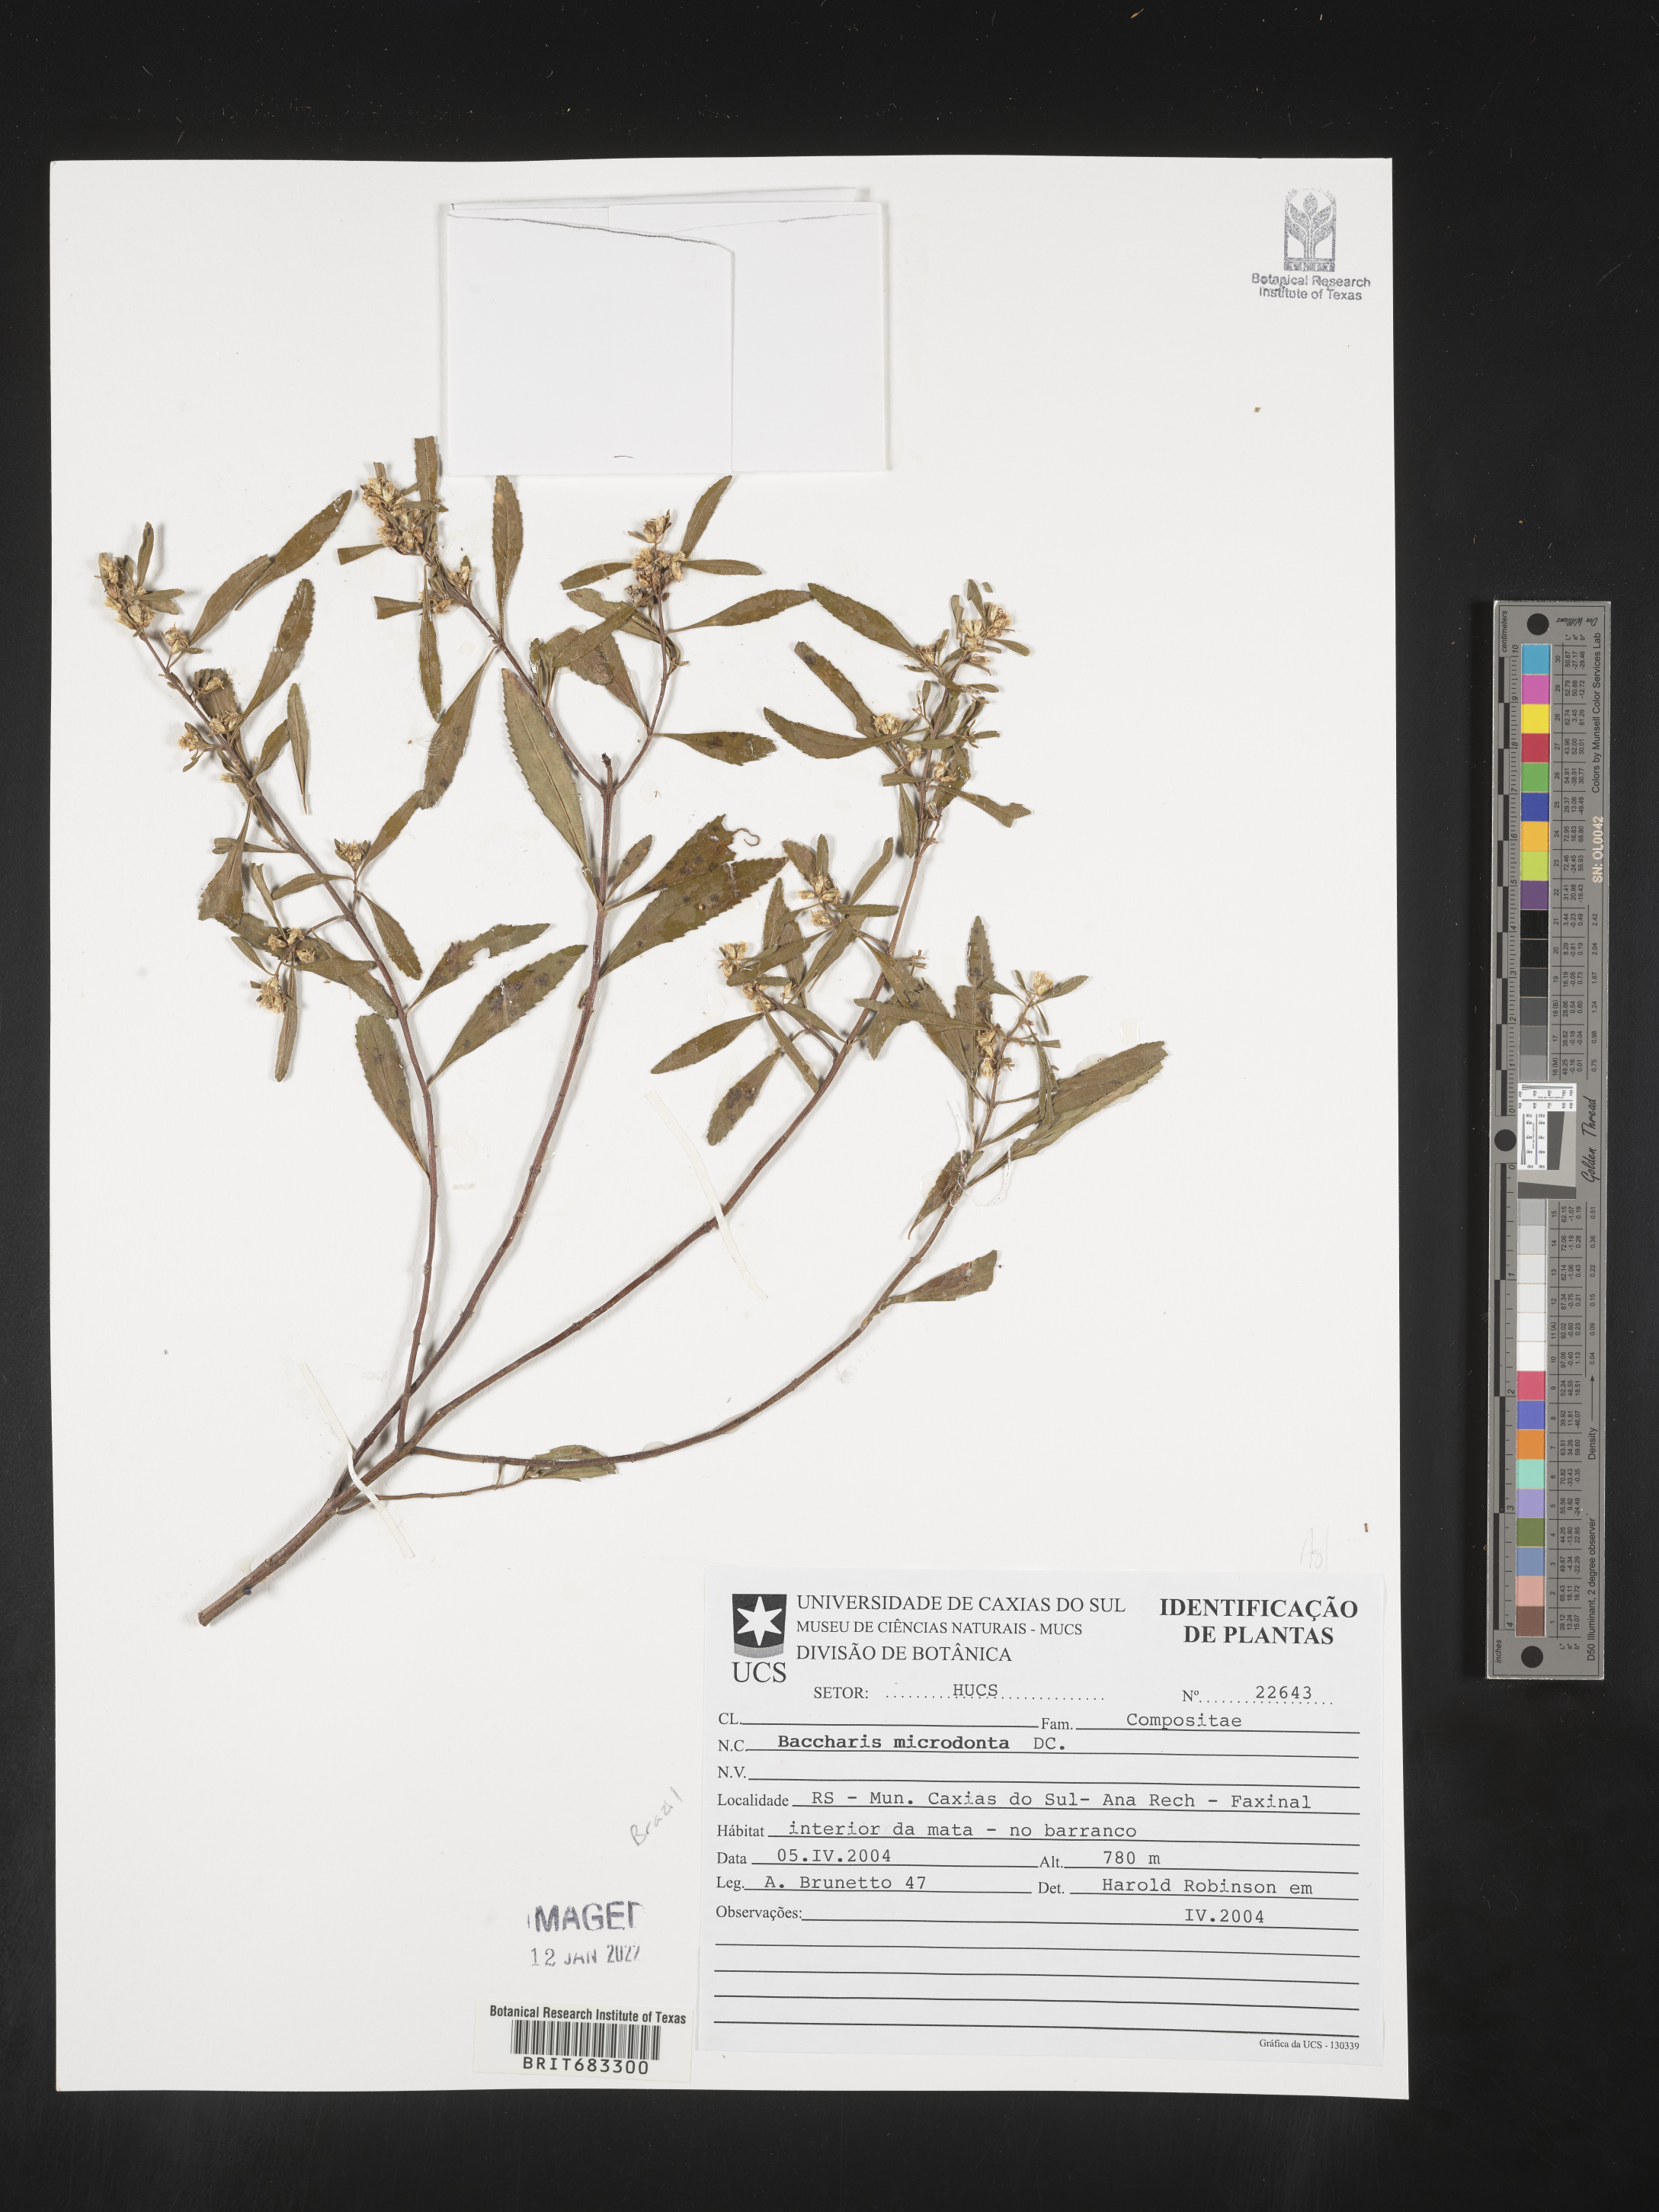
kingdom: Plantae
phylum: Tracheophyta
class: Magnoliopsida
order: Asterales
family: Asteraceae
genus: Baccharis
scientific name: Baccharis
